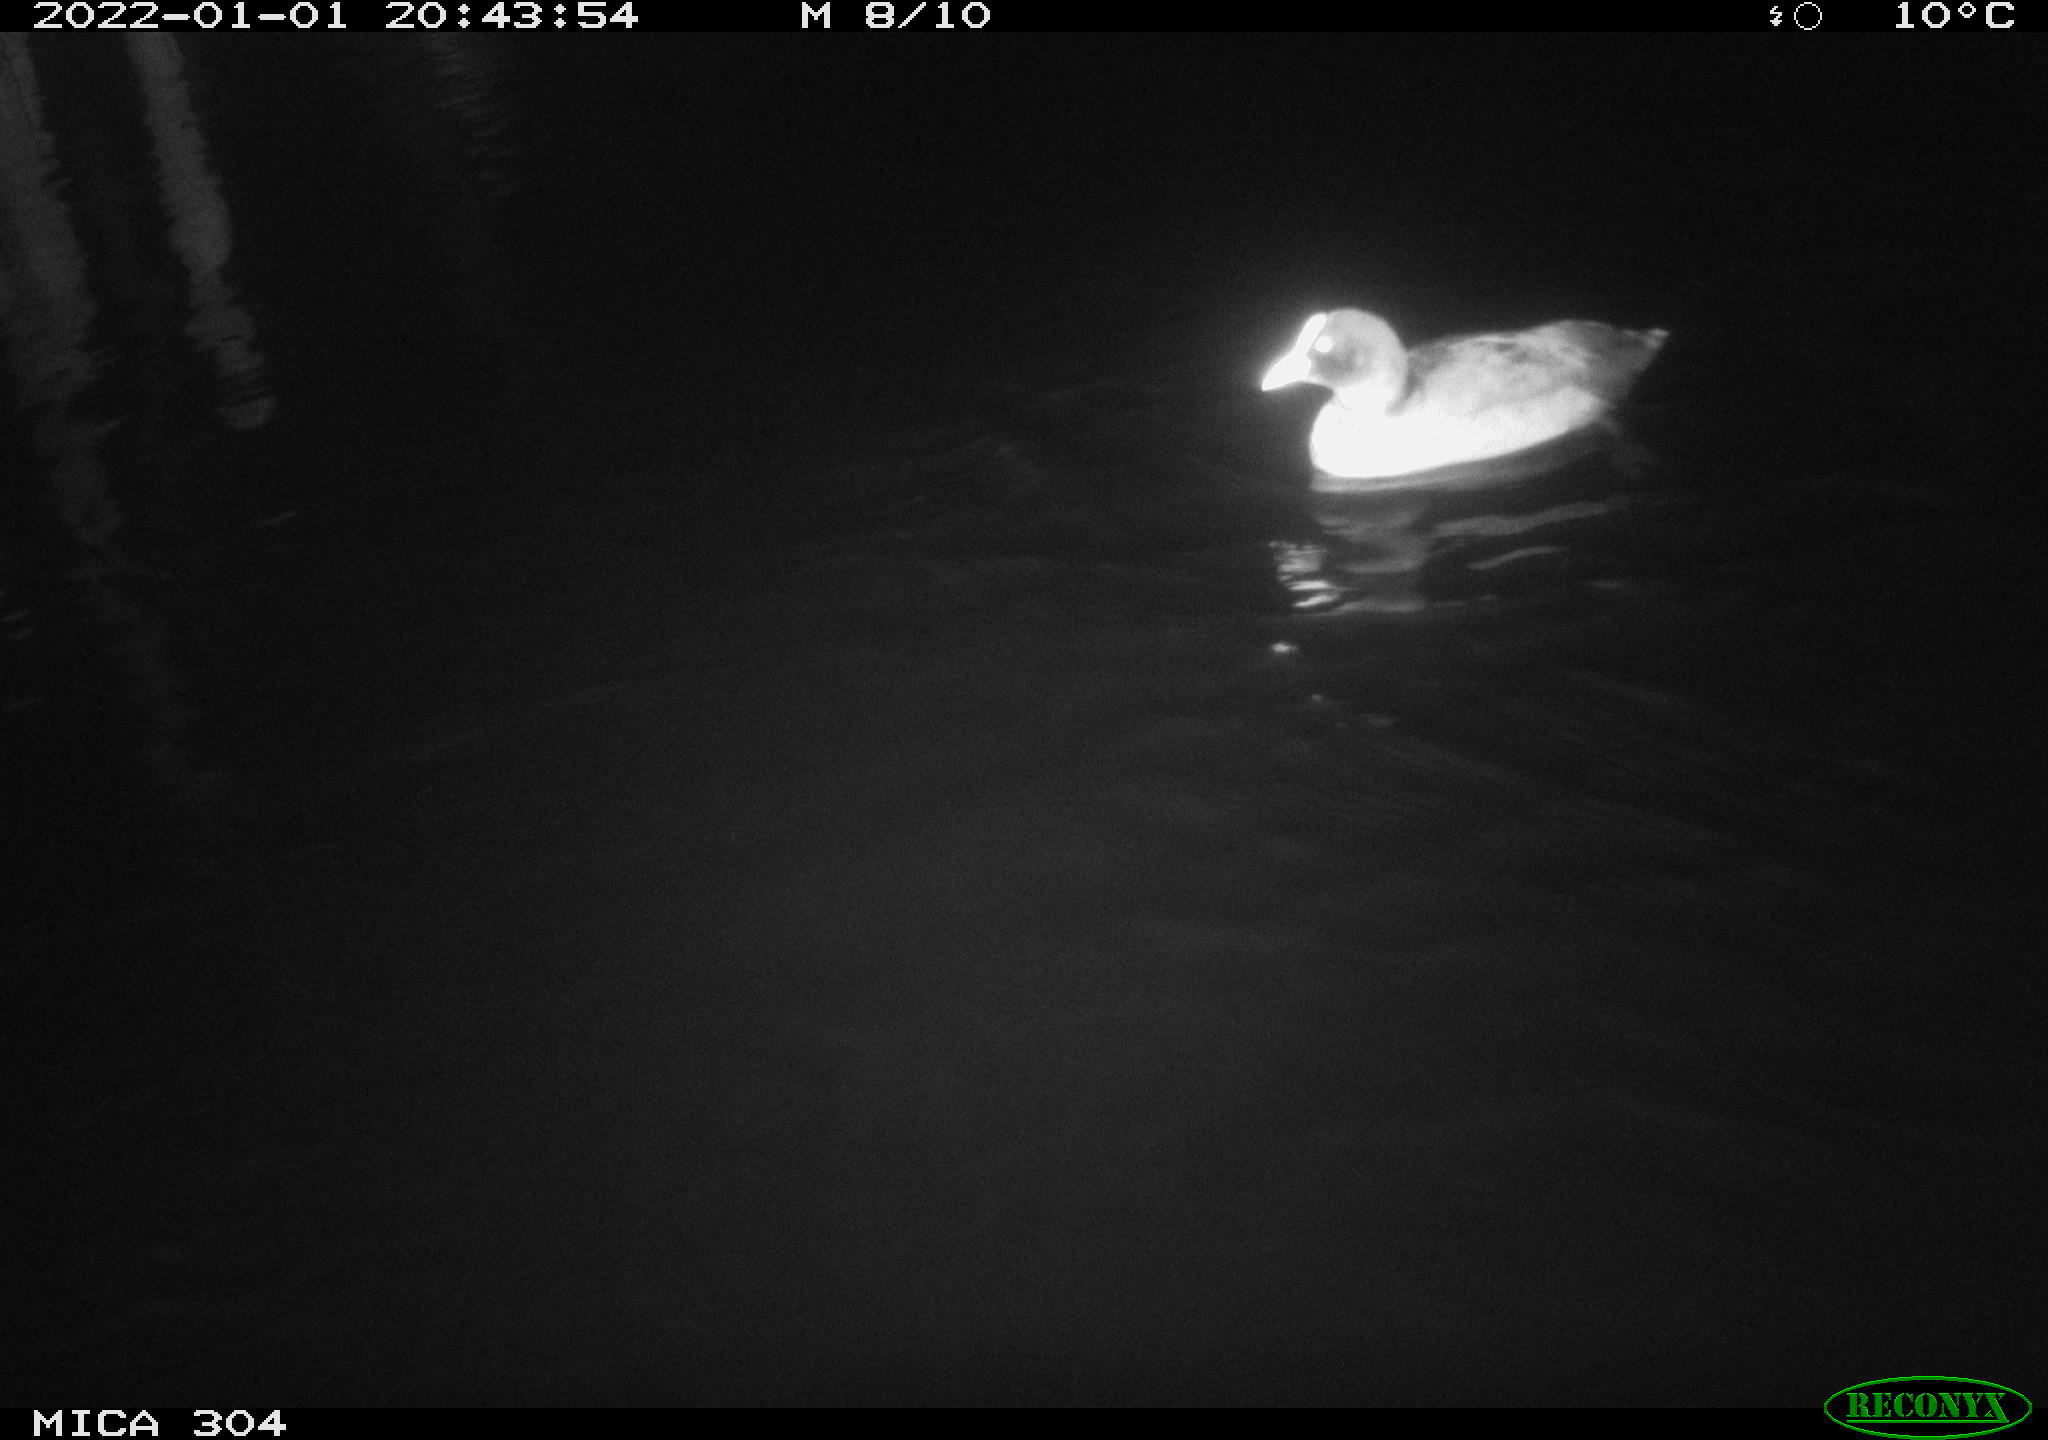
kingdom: Animalia
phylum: Chordata
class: Aves
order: Gruiformes
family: Rallidae
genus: Gallinula
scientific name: Gallinula chloropus
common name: Common moorhen
